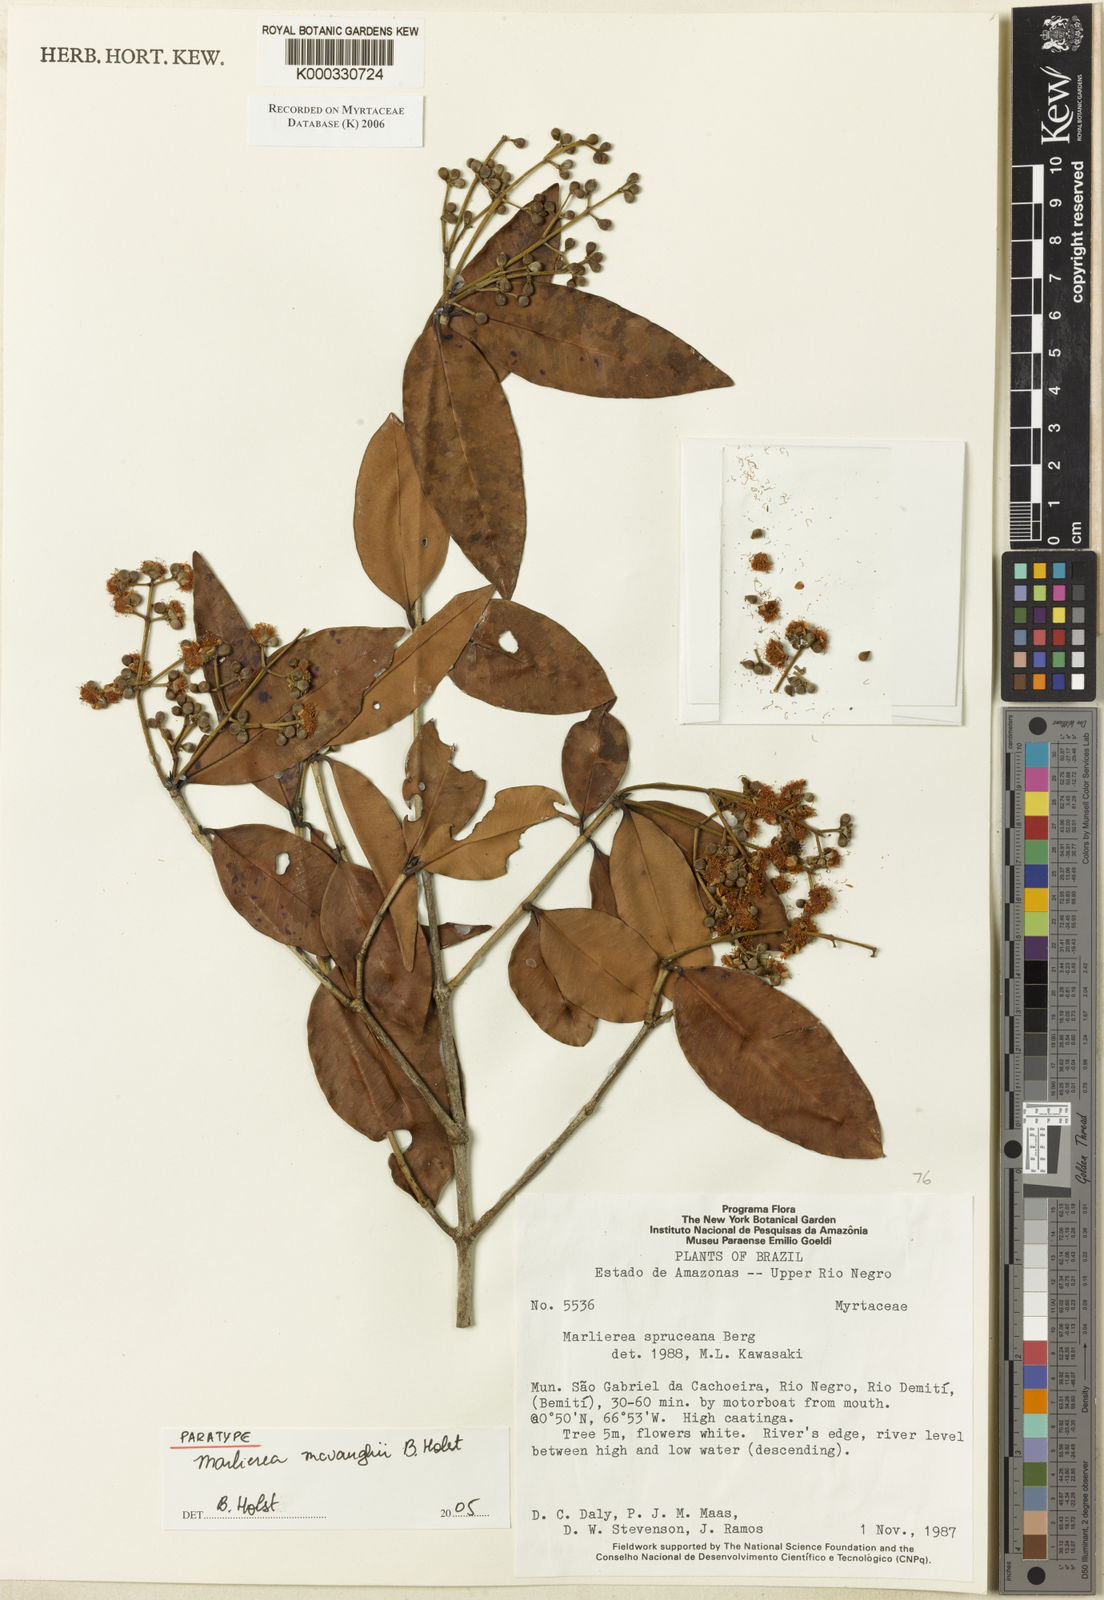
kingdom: Plantae
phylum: Tracheophyta
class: Magnoliopsida
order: Myrtales
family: Myrtaceae
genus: Myrcia
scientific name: Myrcia mcvaughii
